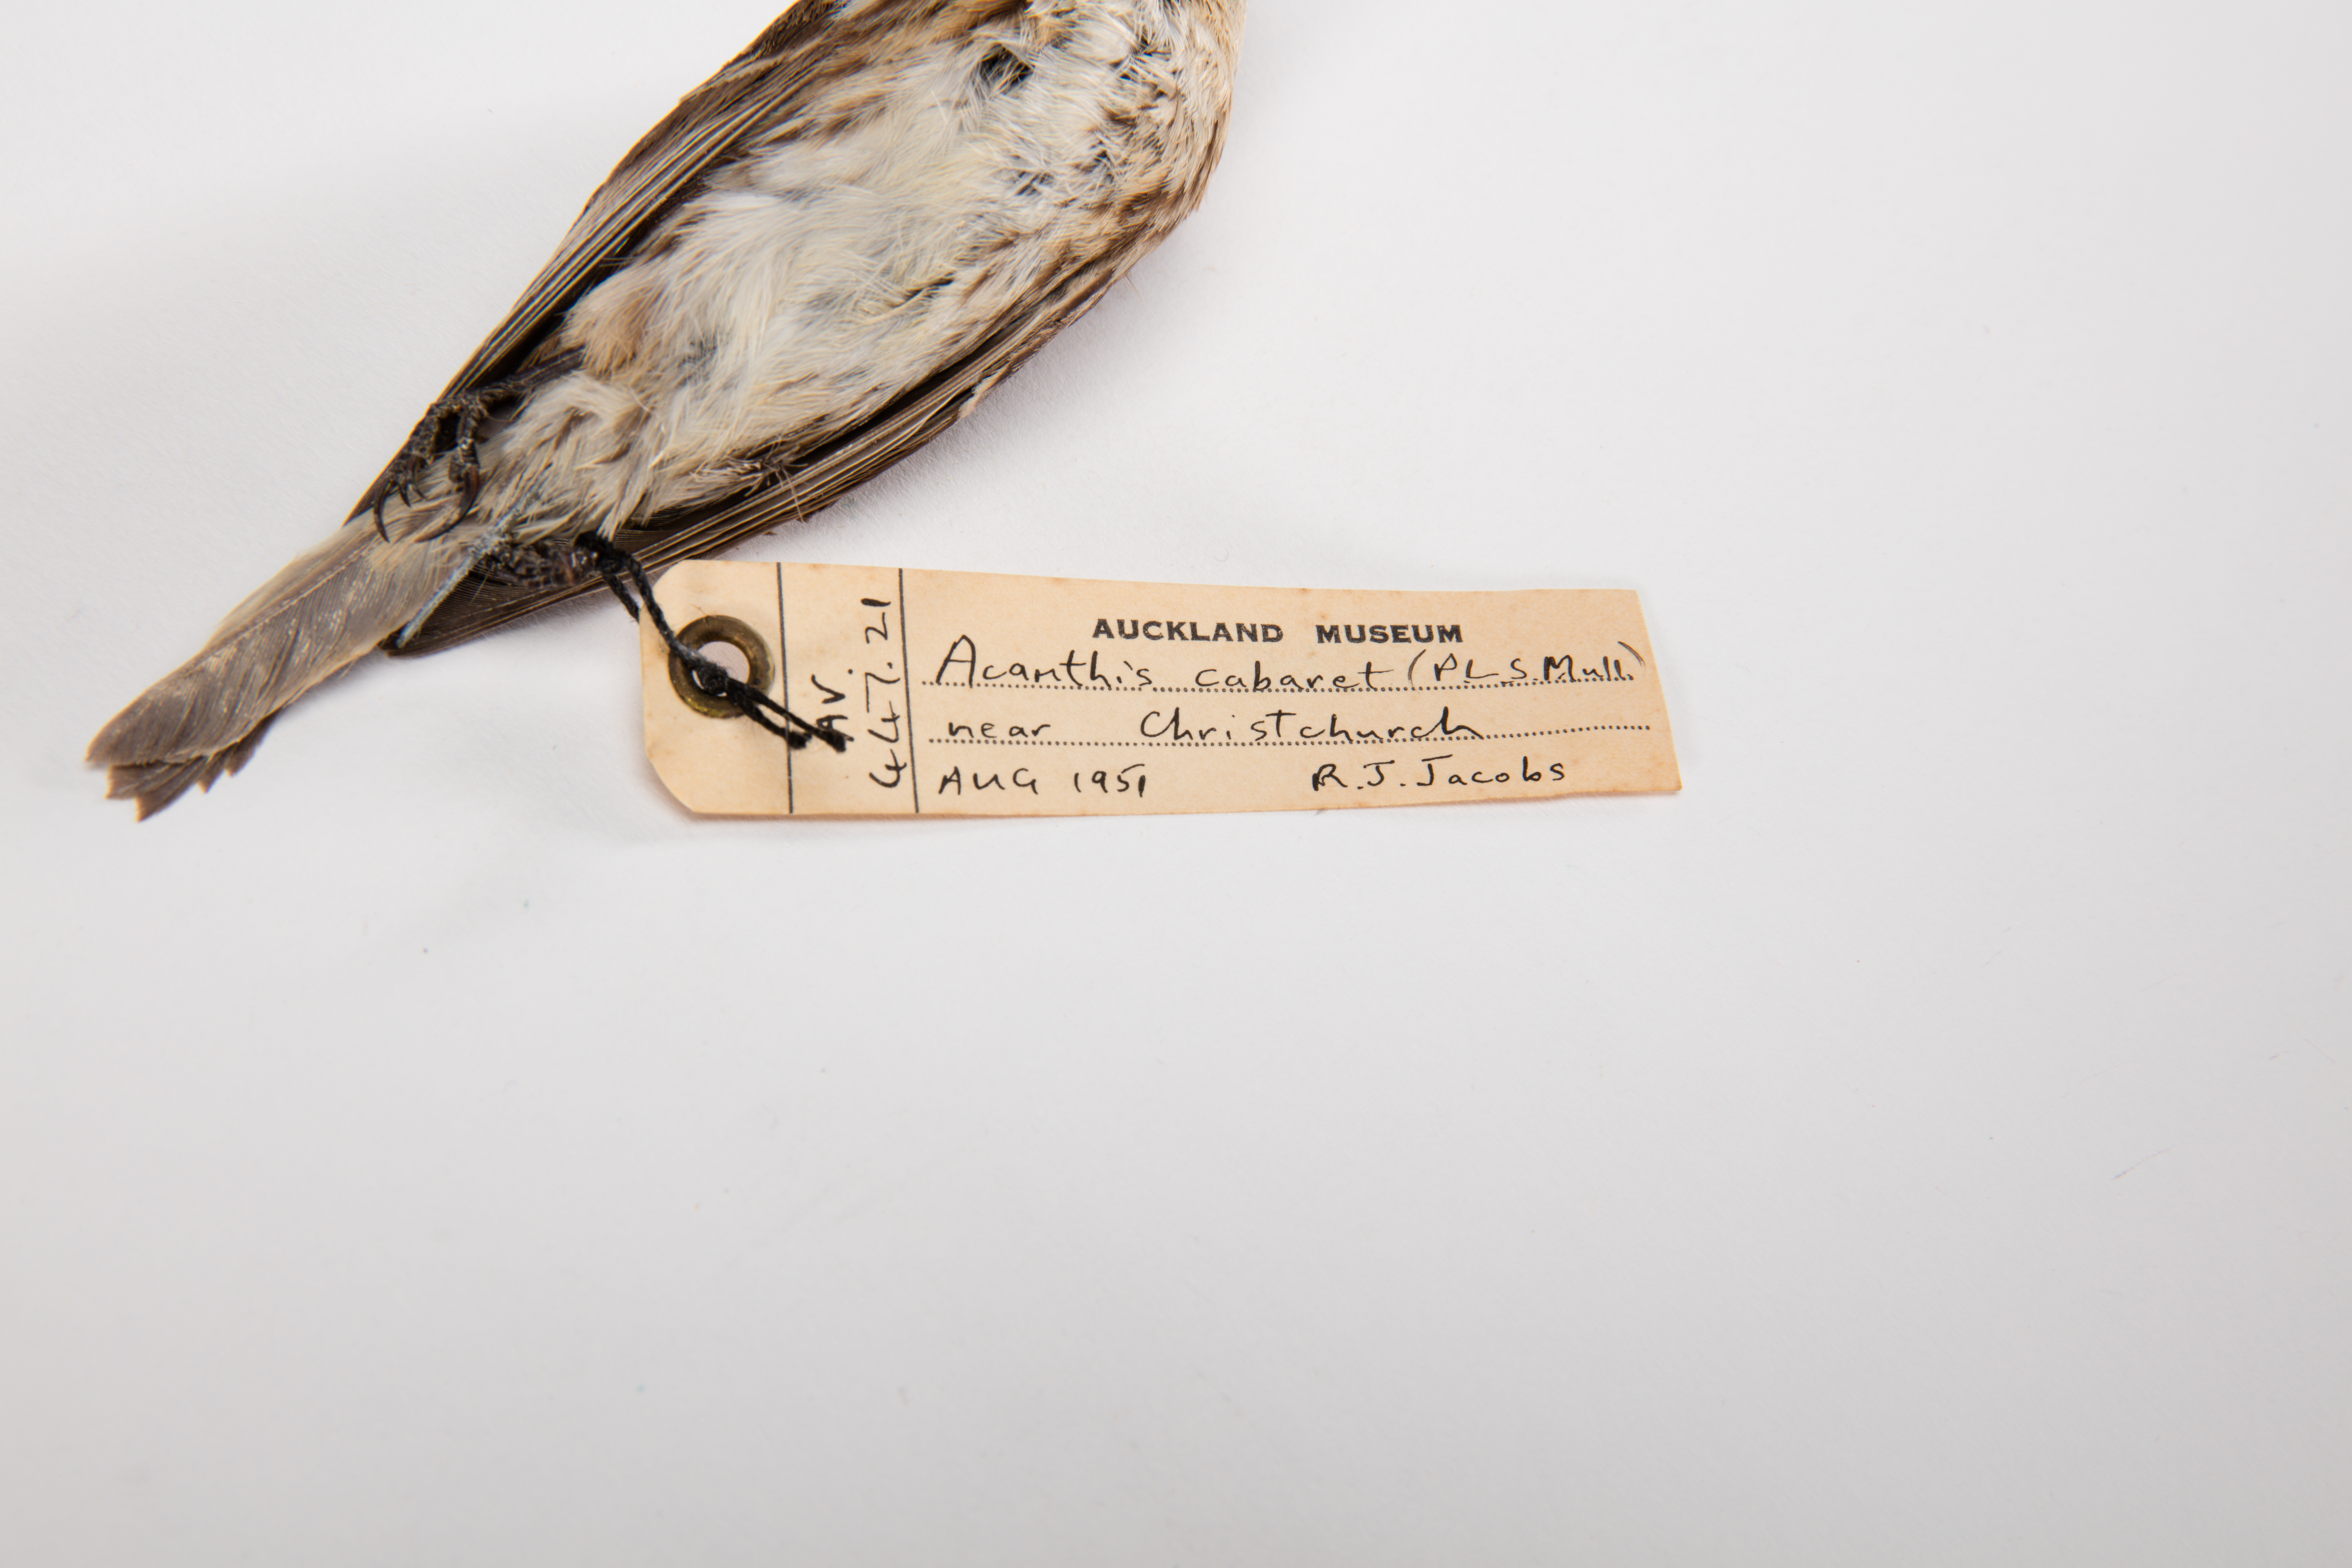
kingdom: Animalia
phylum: Chordata
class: Aves
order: Passeriformes
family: Fringillidae
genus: Acanthis
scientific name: Acanthis flammea
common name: Common redpoll
